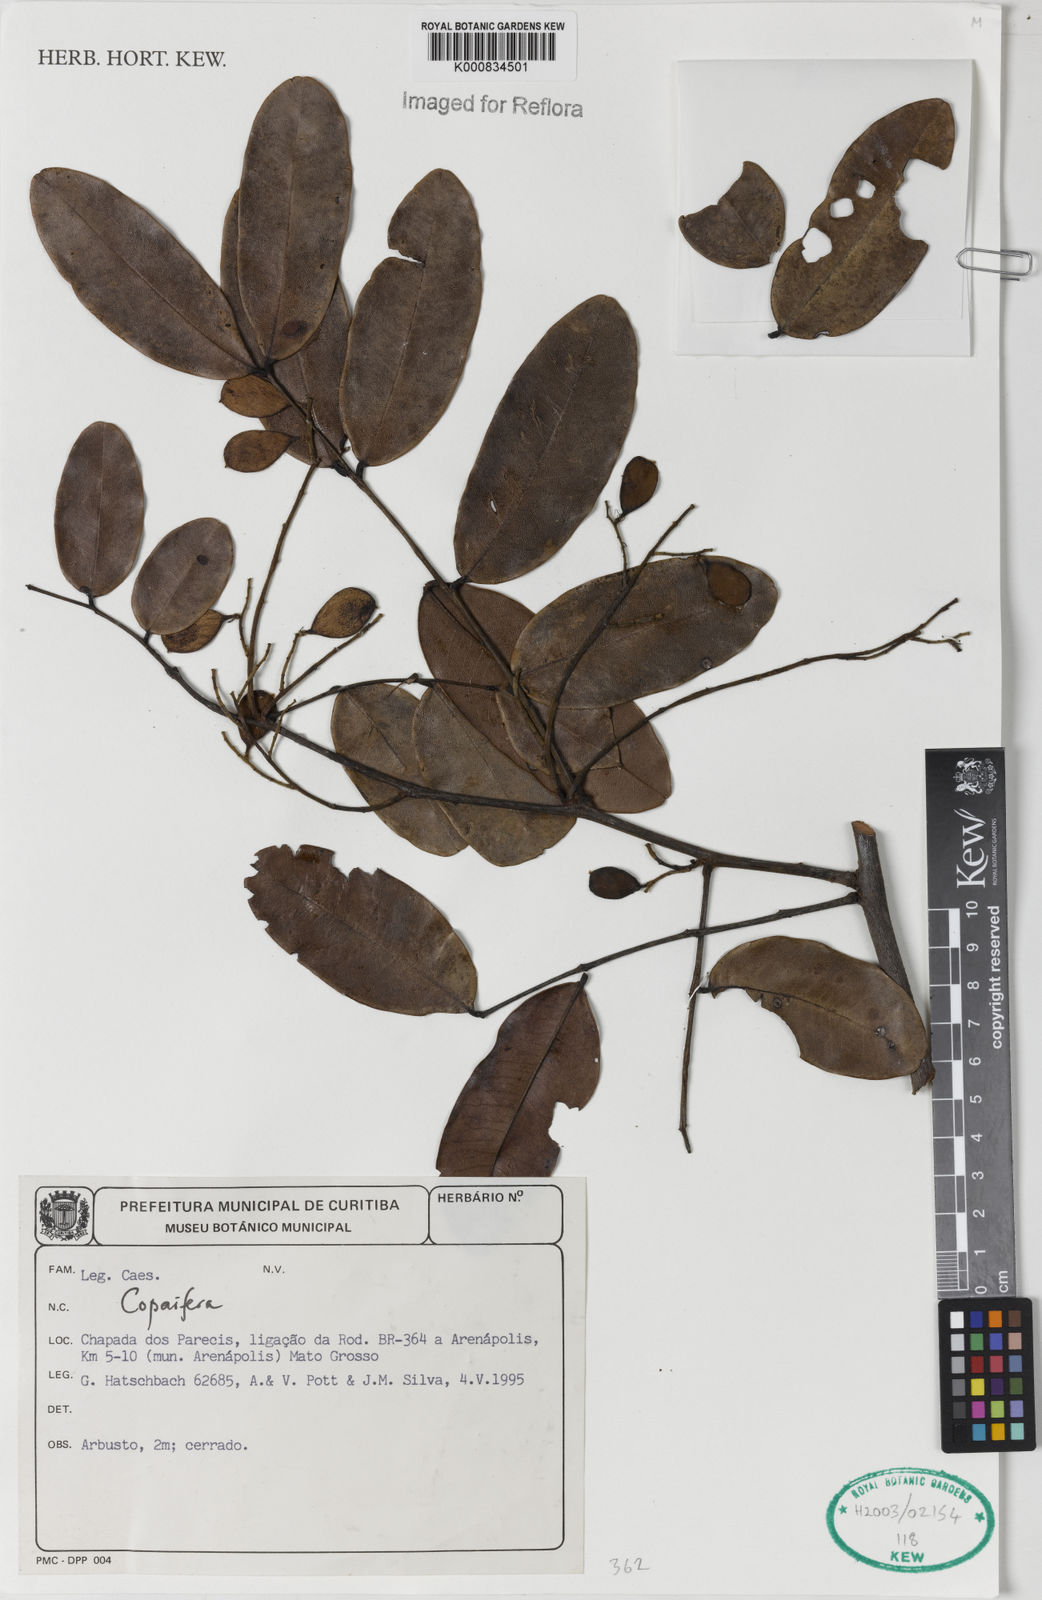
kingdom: Plantae
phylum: Tracheophyta
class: Magnoliopsida
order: Fabales
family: Fabaceae
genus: Copaifera
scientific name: Copaifera
